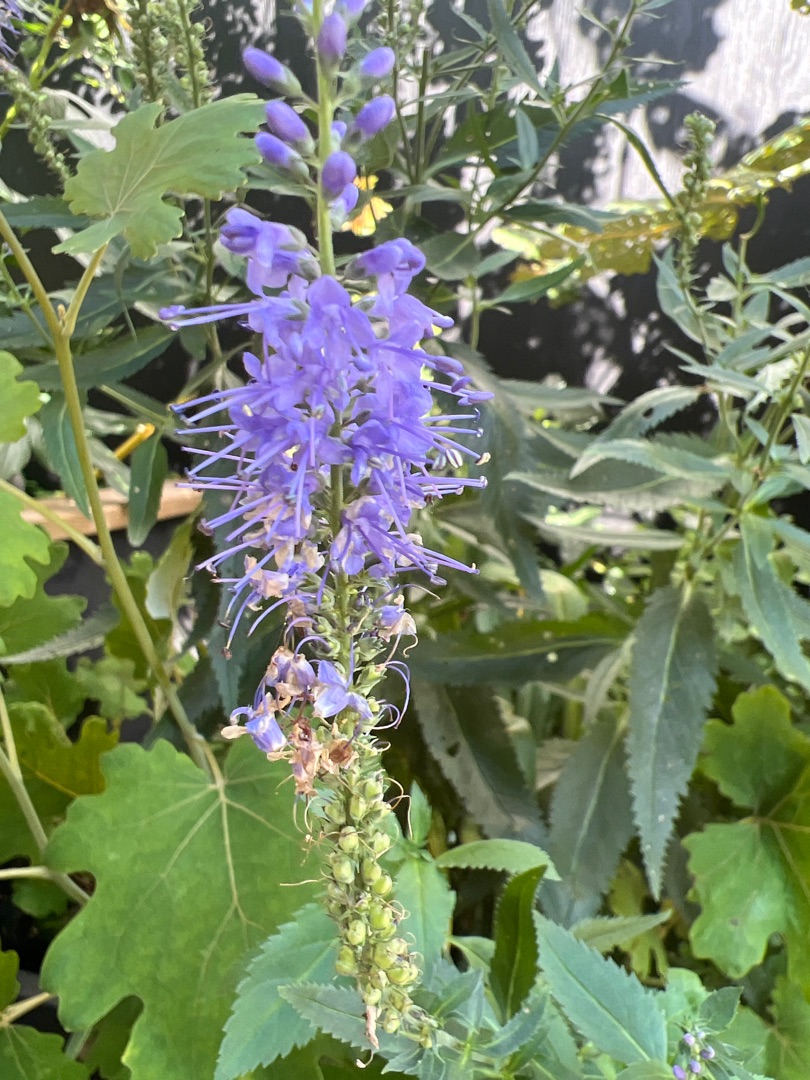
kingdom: Plantae
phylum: Tracheophyta
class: Magnoliopsida
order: Lamiales
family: Plantaginaceae
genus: Veronica
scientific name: Veronica longifolia
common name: Langbladet ærenpris
